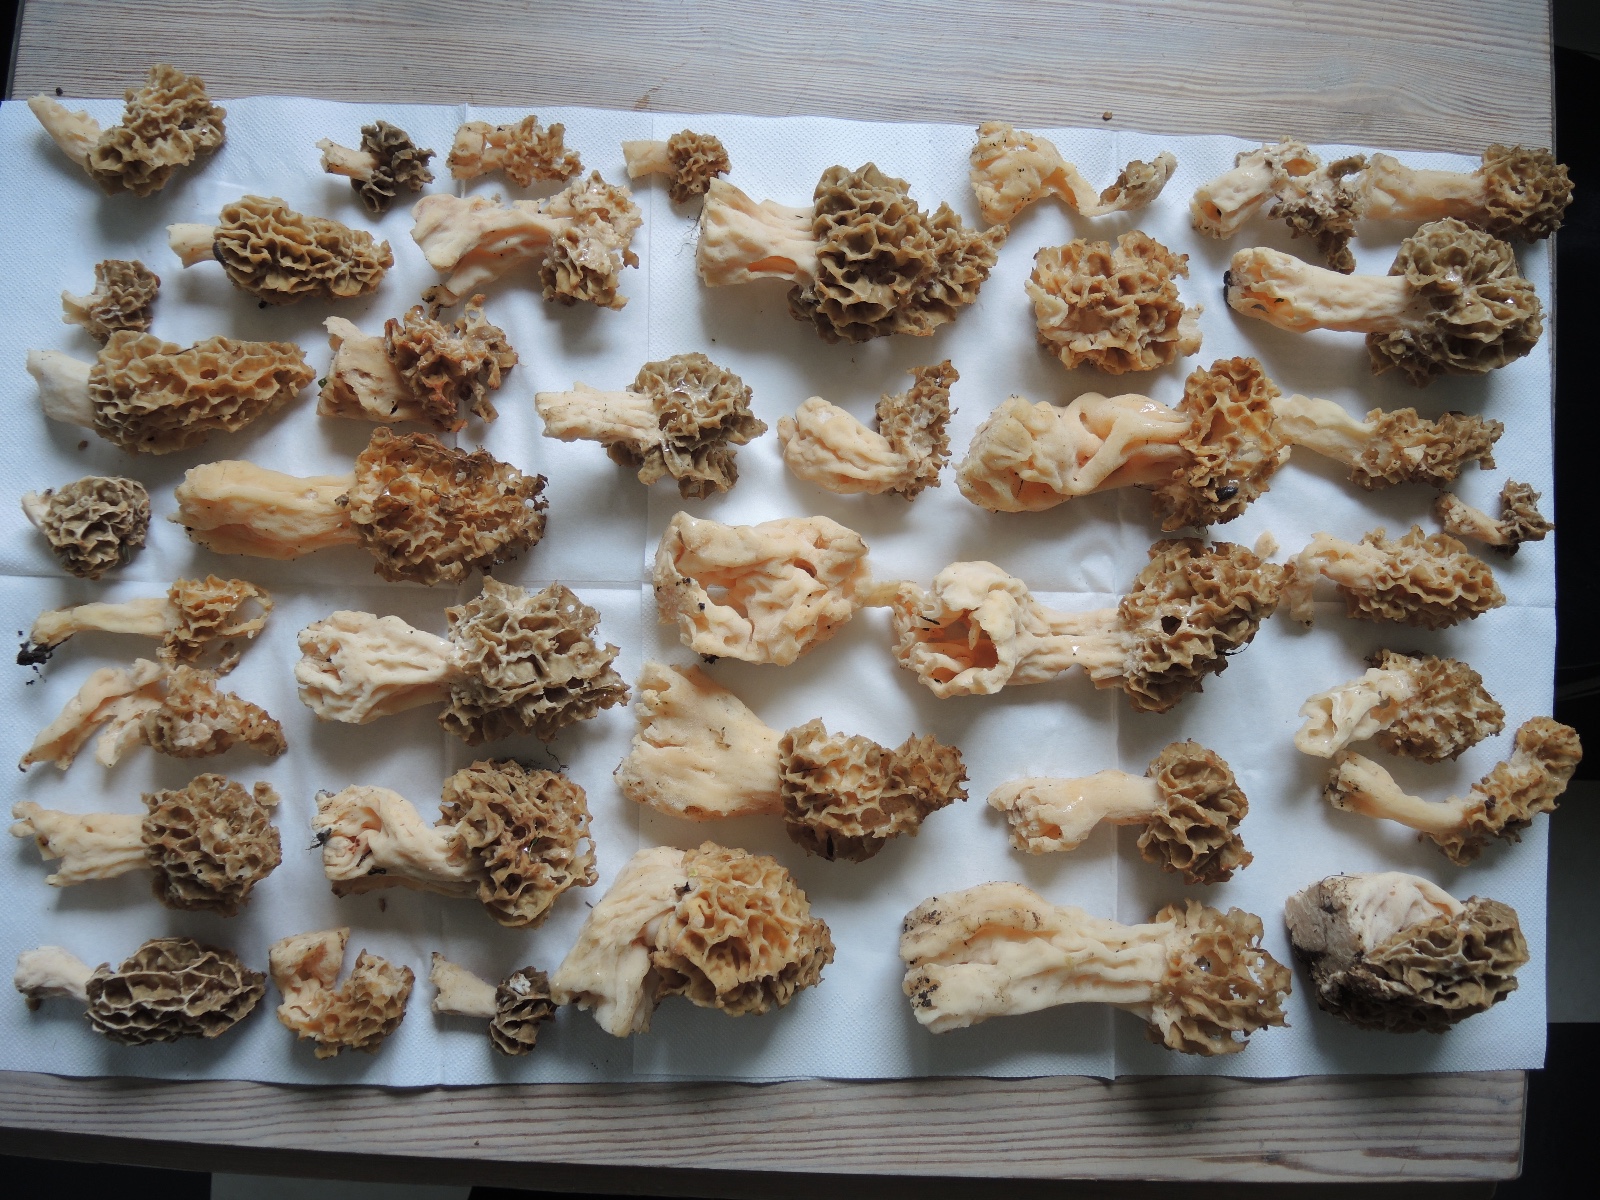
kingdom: Fungi
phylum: Ascomycota
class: Pezizomycetes
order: Pezizales
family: Morchellaceae
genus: Morchella
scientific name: Morchella esculenta
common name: spiselig morkel
